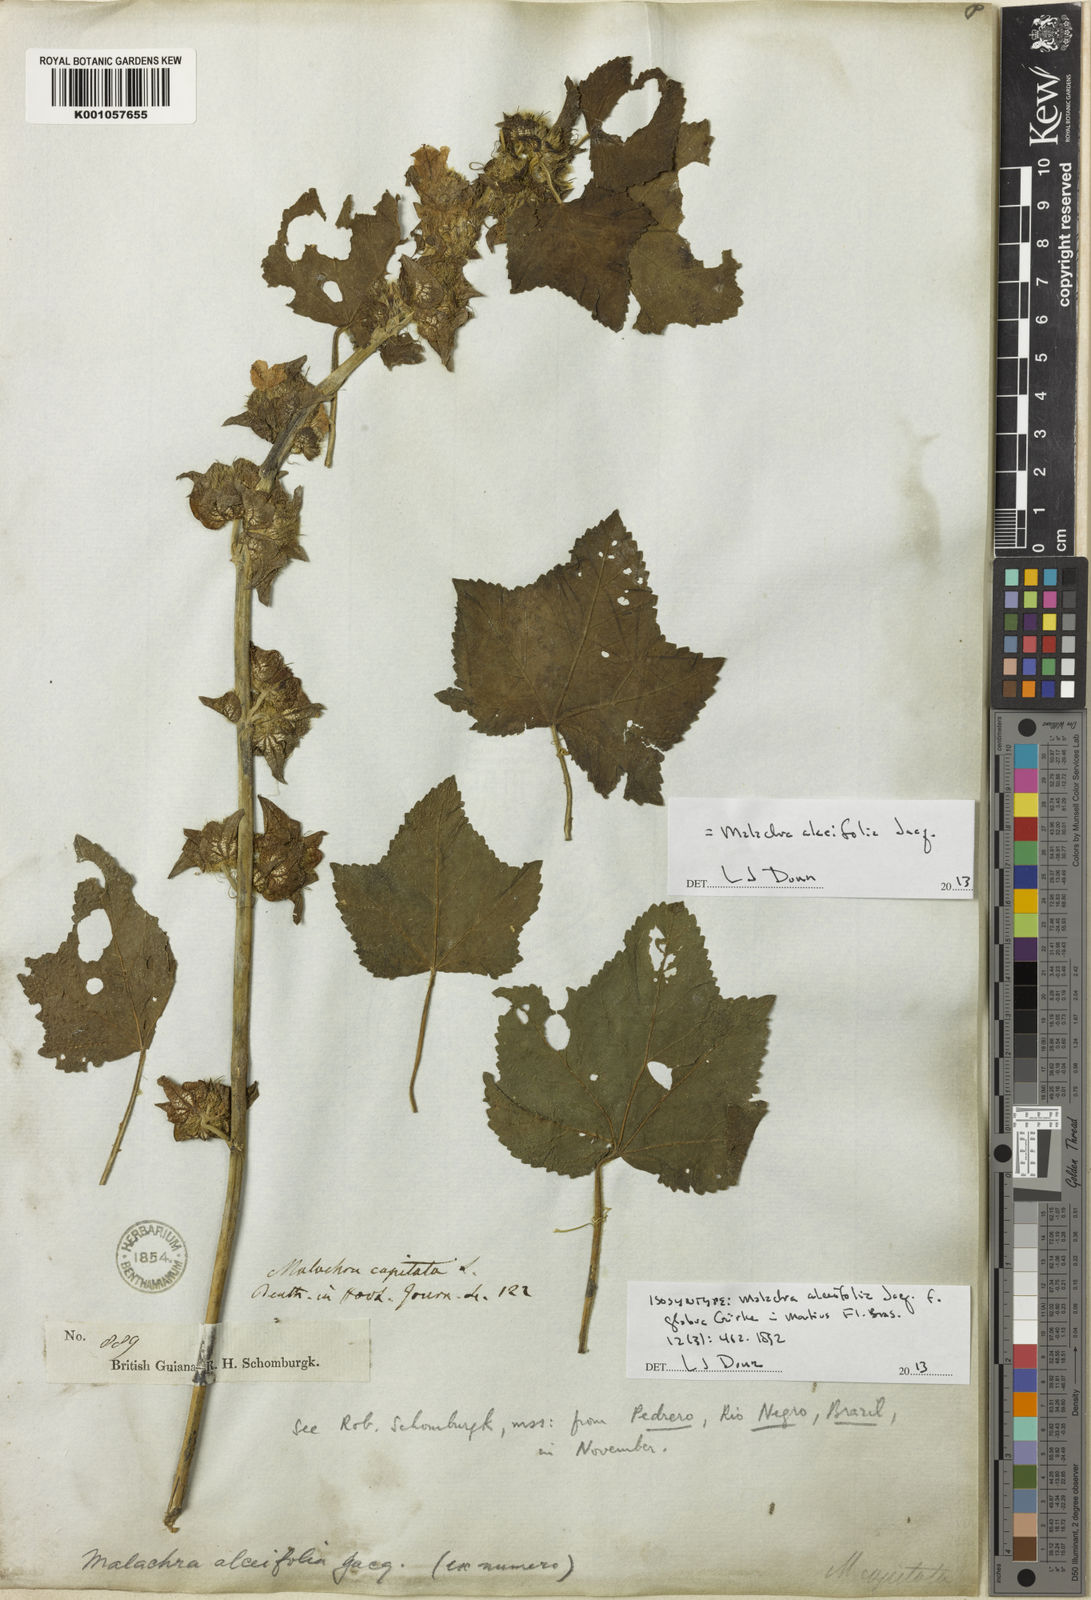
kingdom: Plantae
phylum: Tracheophyta
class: Magnoliopsida
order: Malvales
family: Malvaceae
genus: Malachra
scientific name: Malachra alceifolia
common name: Yellow leafbract
